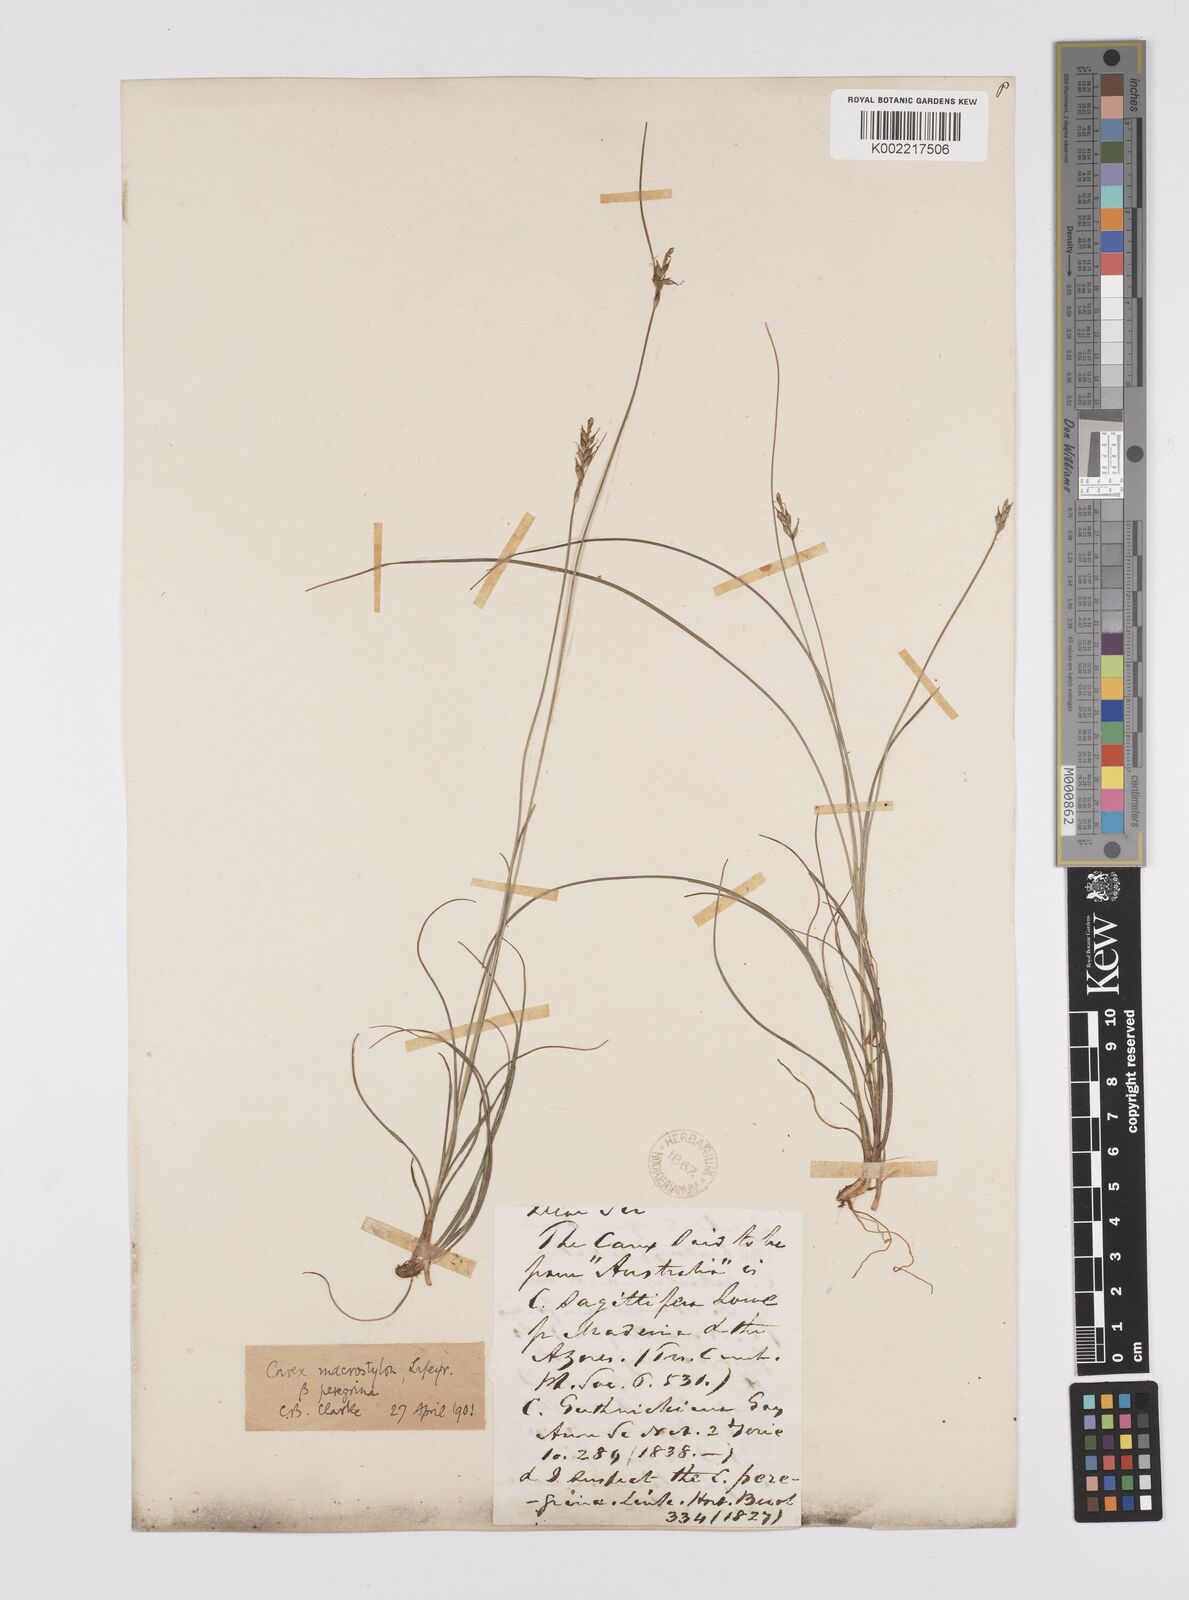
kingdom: Plantae
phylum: Tracheophyta
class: Liliopsida
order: Poales
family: Cyperaceae
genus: Carex
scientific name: Carex peregrina
